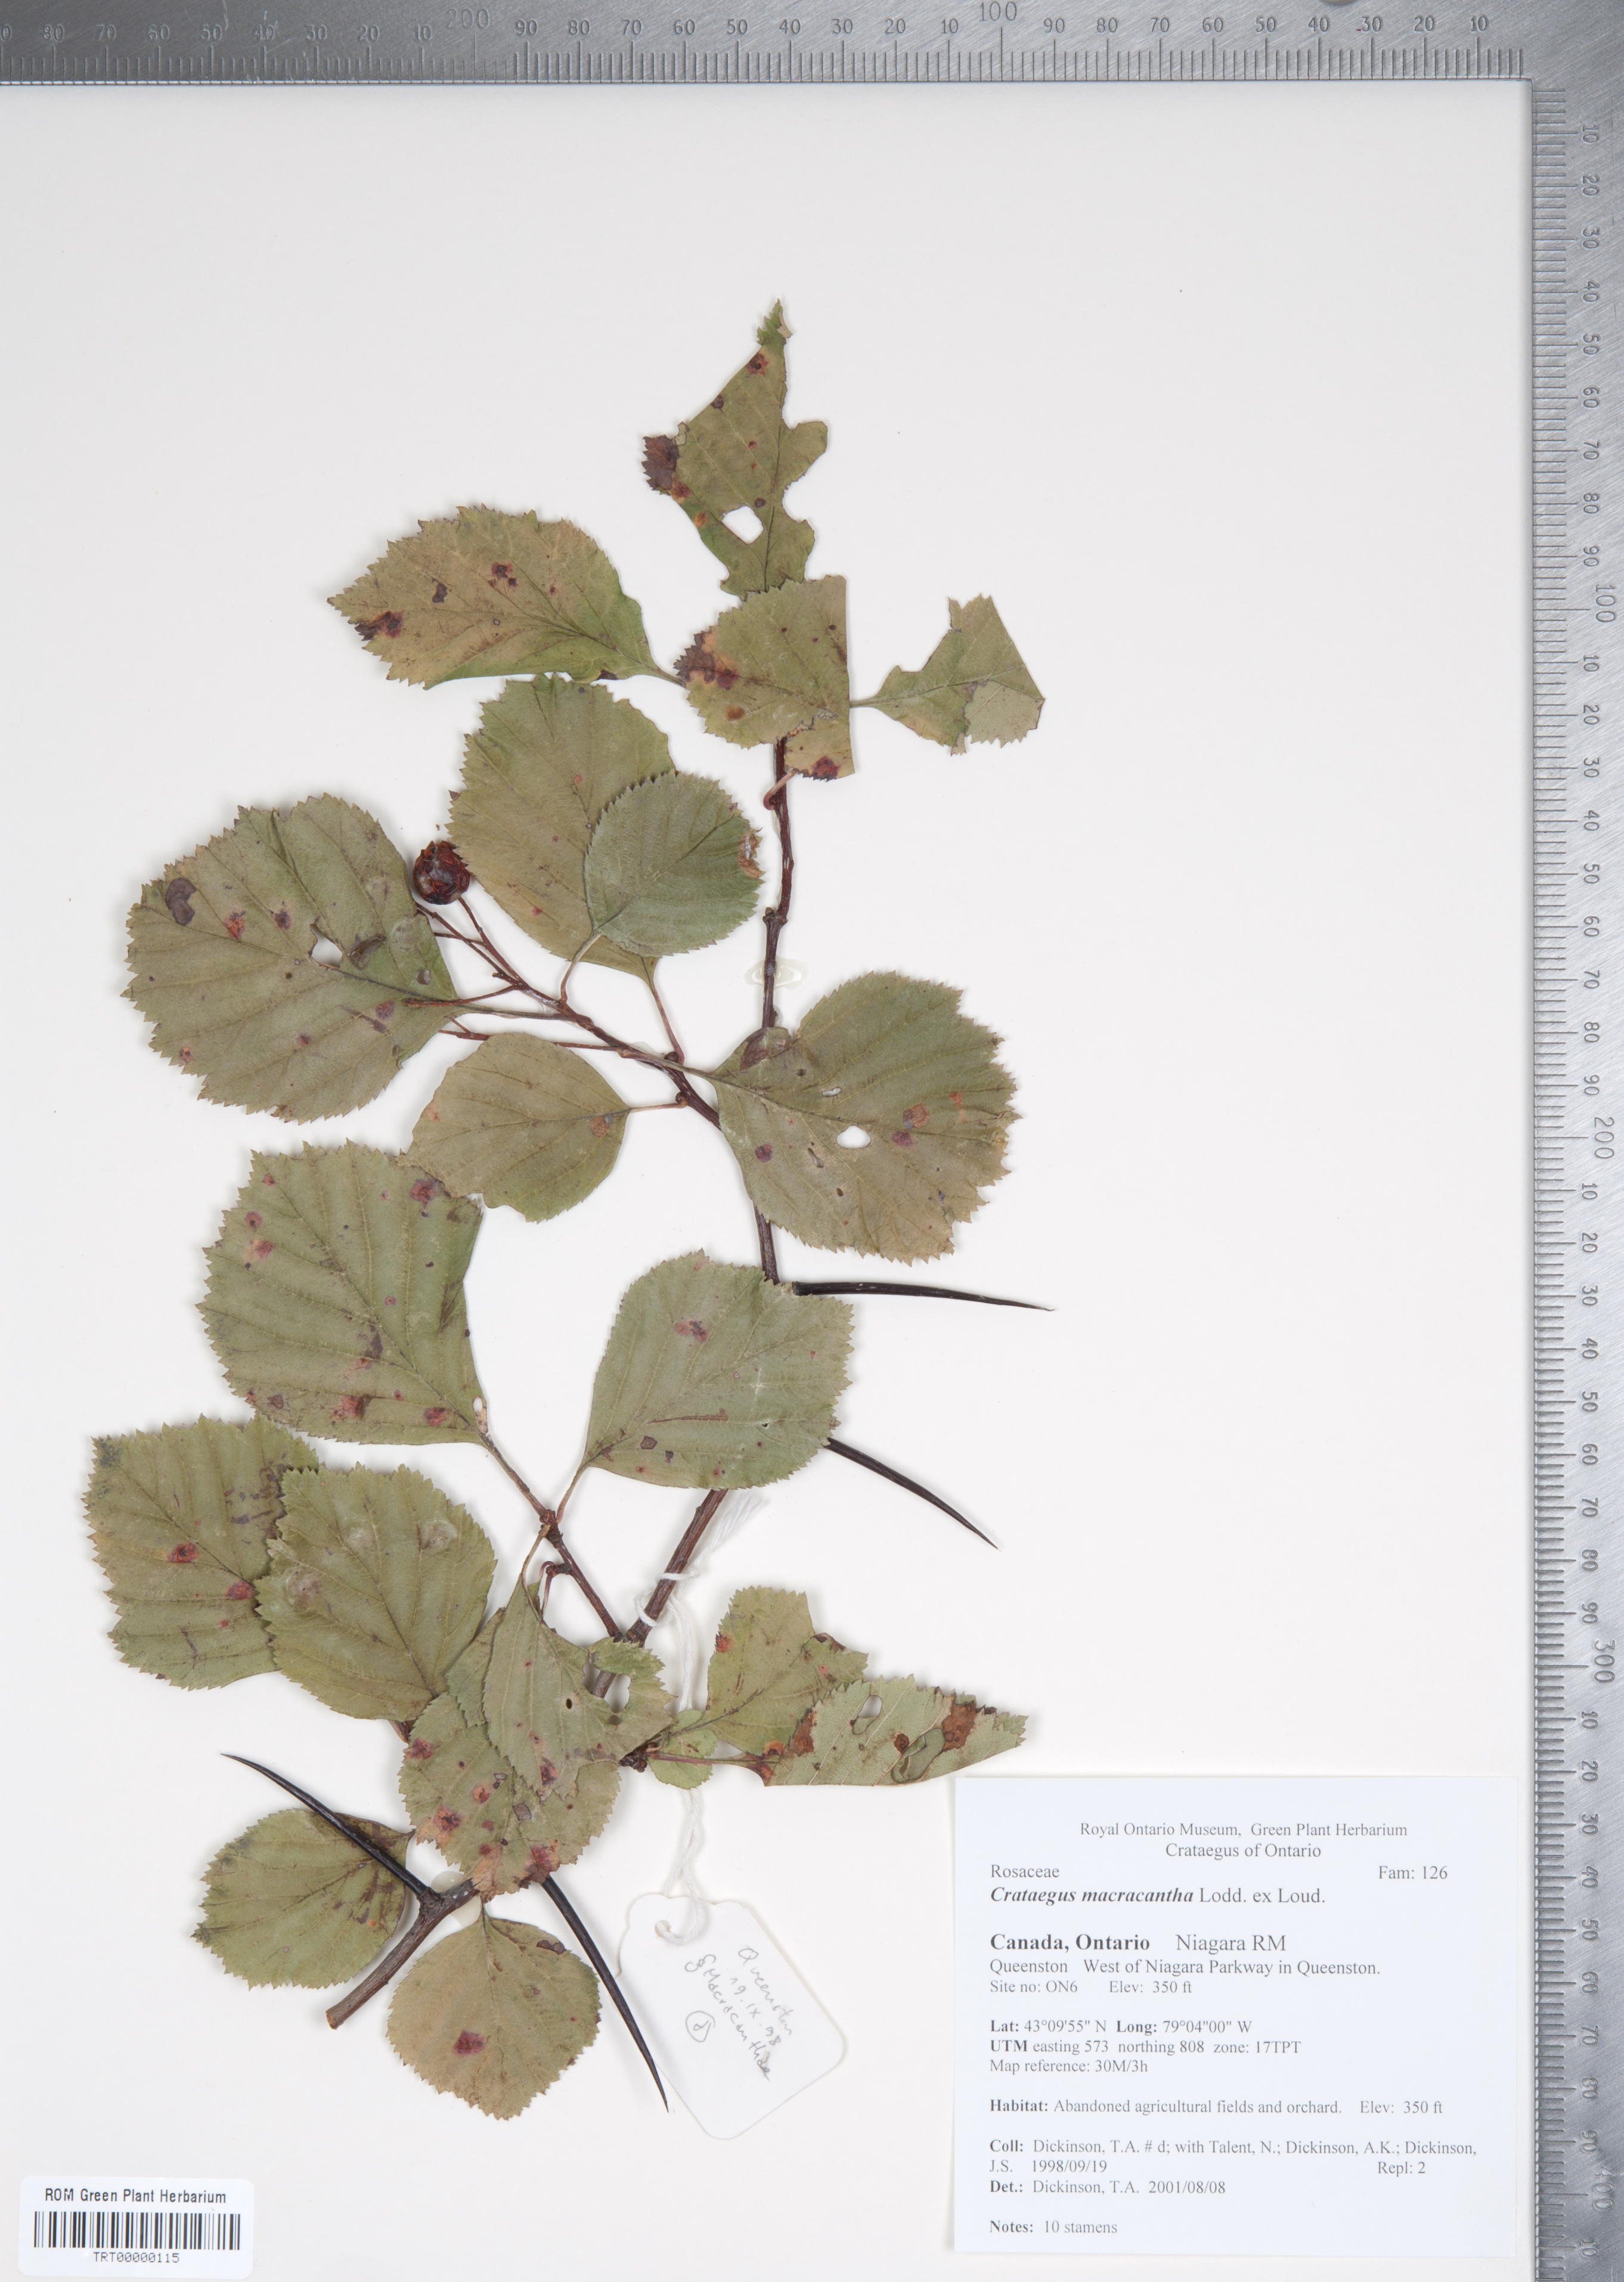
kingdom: Plantae
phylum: Tracheophyta
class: Magnoliopsida
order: Rosales
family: Rosaceae
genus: Crataegus
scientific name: Crataegus macracantha
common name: Large-thorn hawthorn
